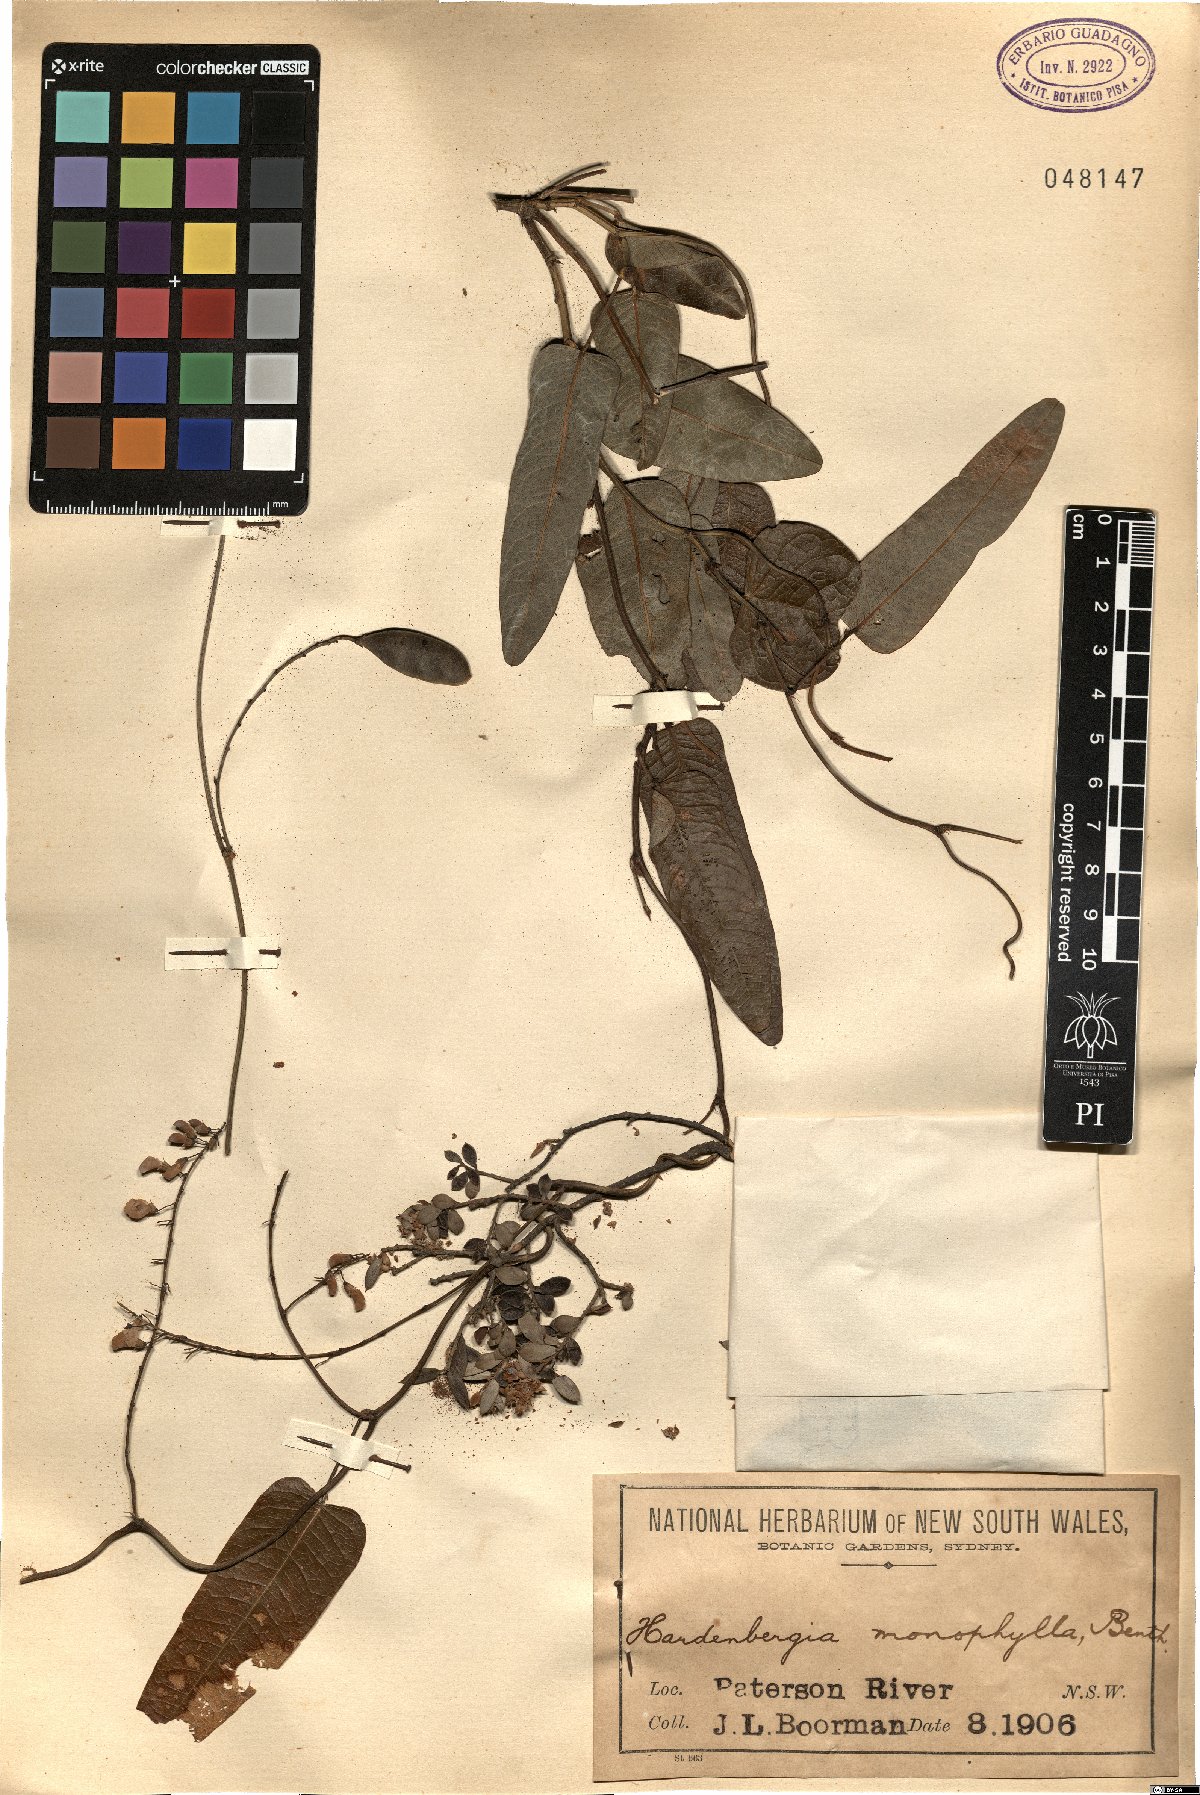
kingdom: Plantae
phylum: Tracheophyta
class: Magnoliopsida
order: Fabales
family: Fabaceae
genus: Hardenbergia
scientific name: Hardenbergia violacea
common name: Coral-pea
